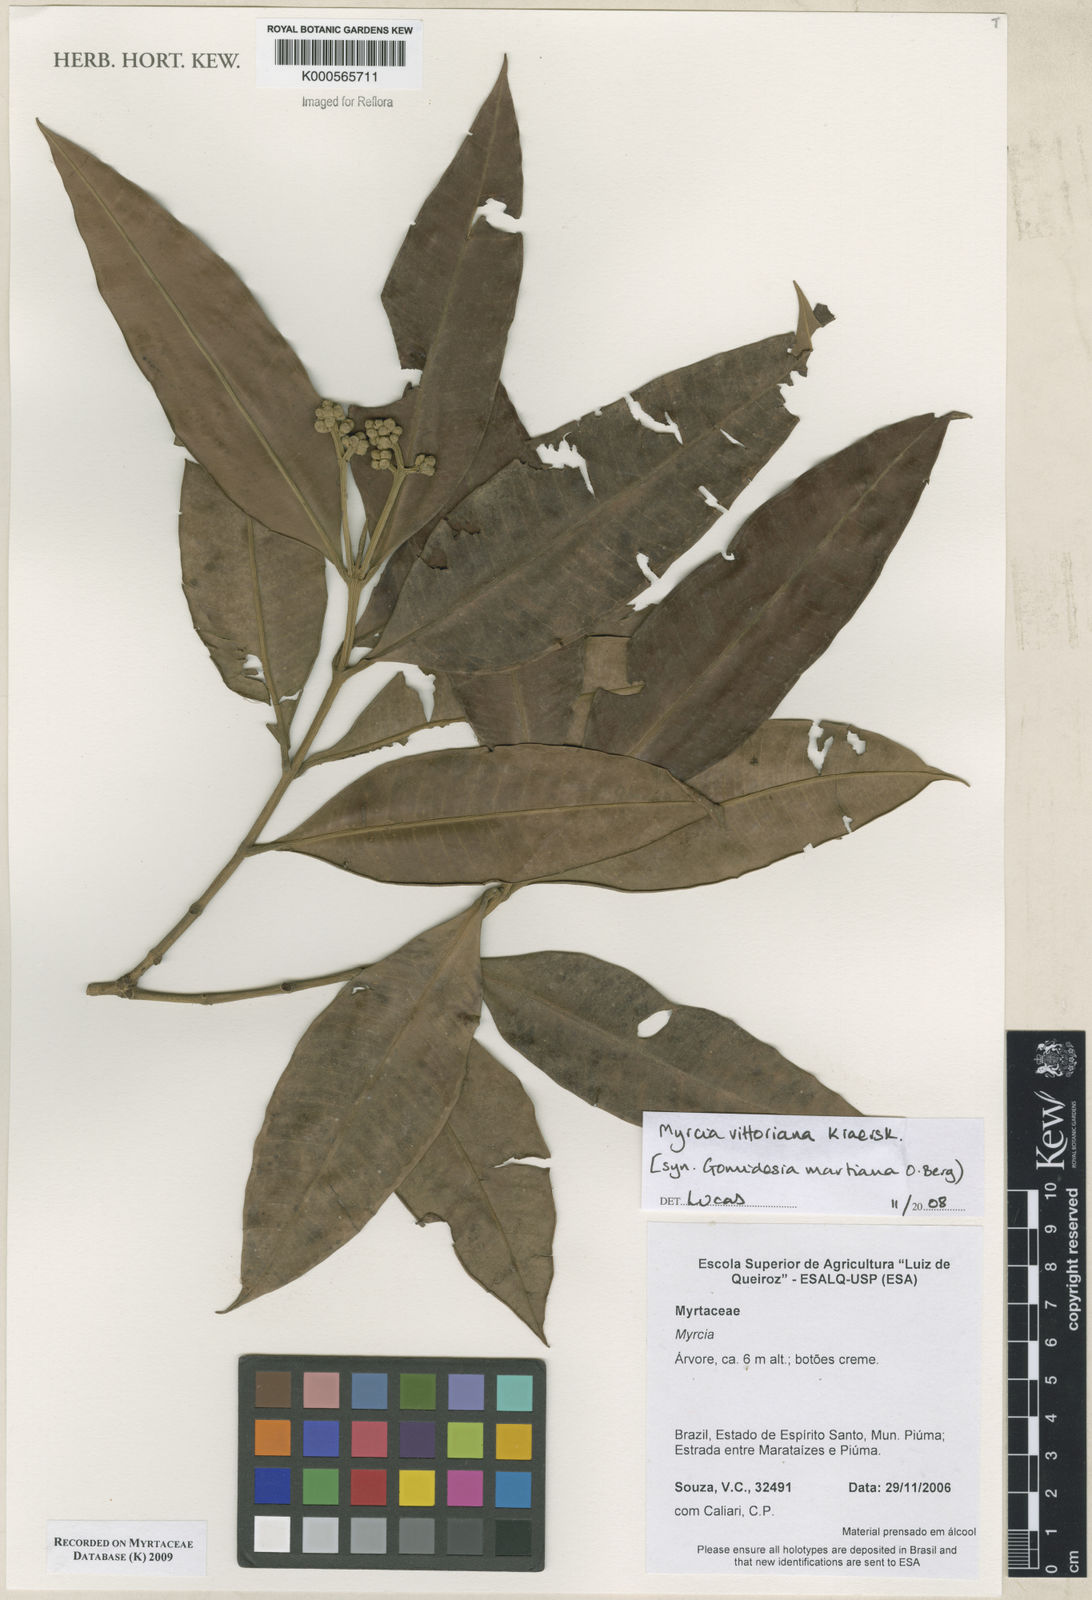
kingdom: Plantae
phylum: Tracheophyta
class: Magnoliopsida
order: Myrtales
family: Myrtaceae
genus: Myrcia
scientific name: Myrcia vittoriana
